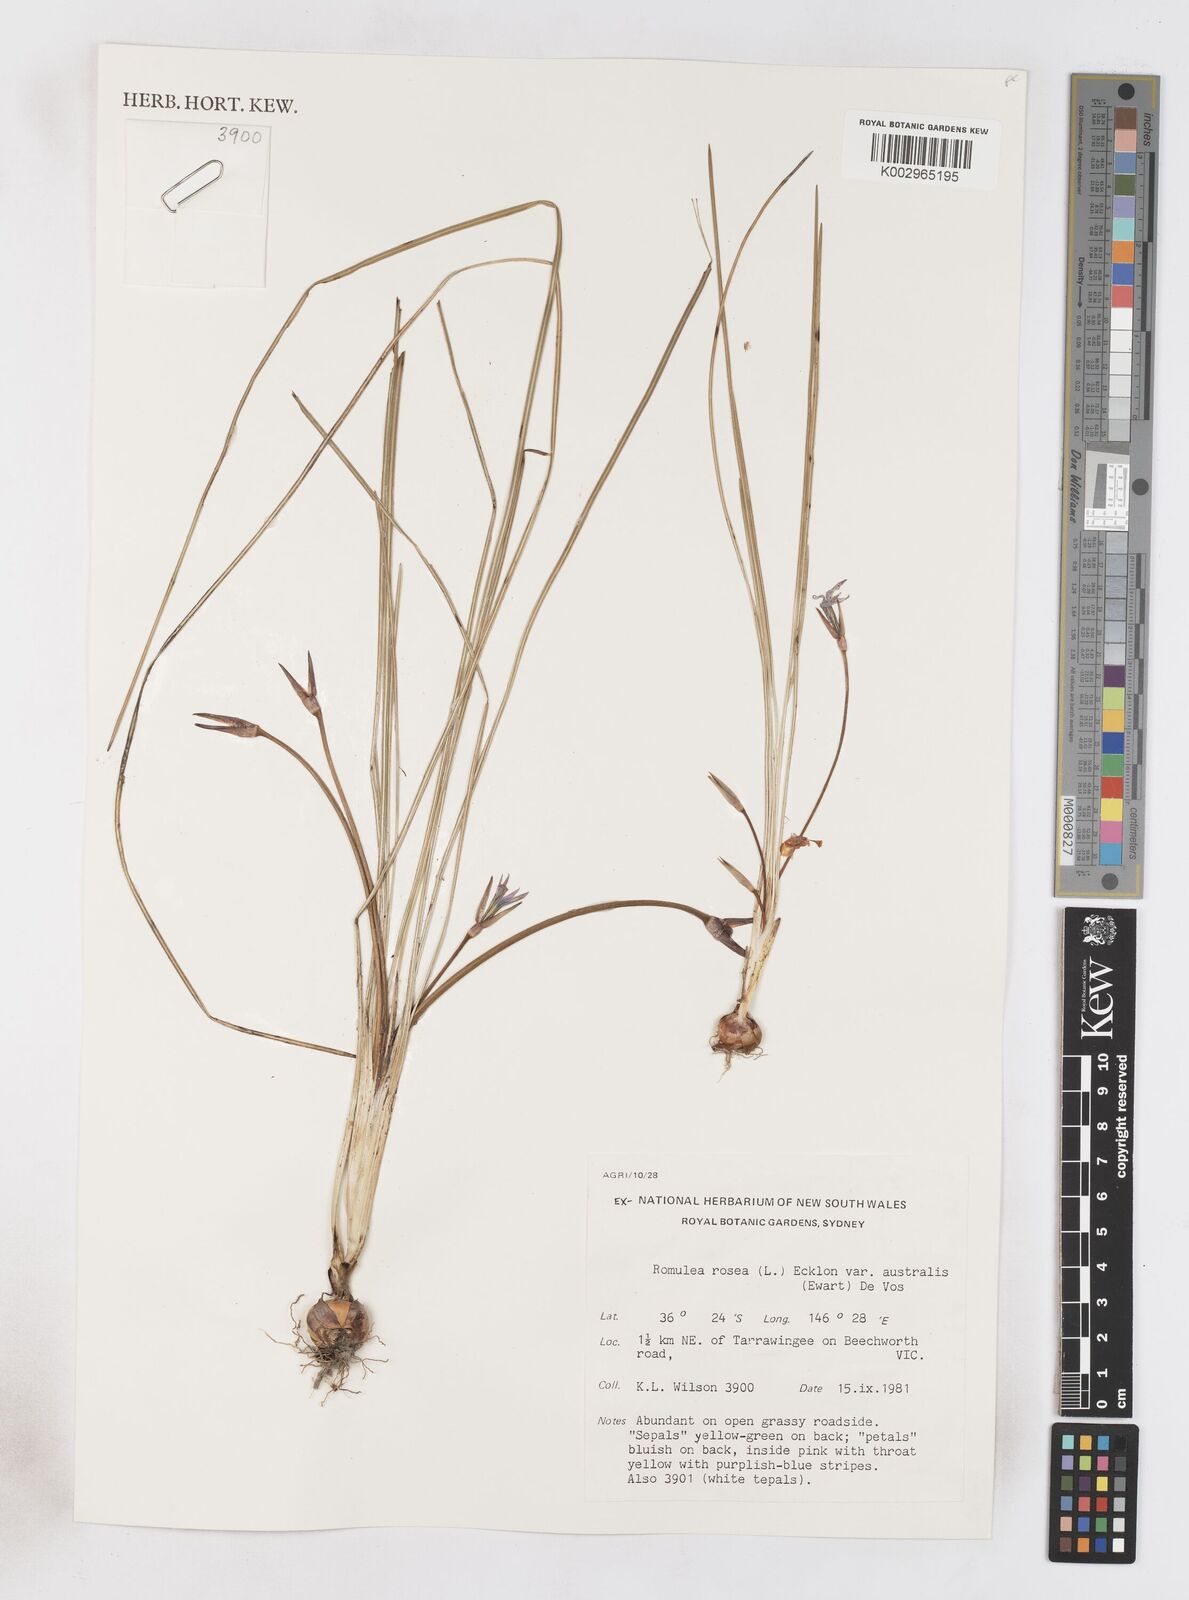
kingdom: Plantae
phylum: Tracheophyta
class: Liliopsida
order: Asparagales
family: Iridaceae
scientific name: Iridaceae
